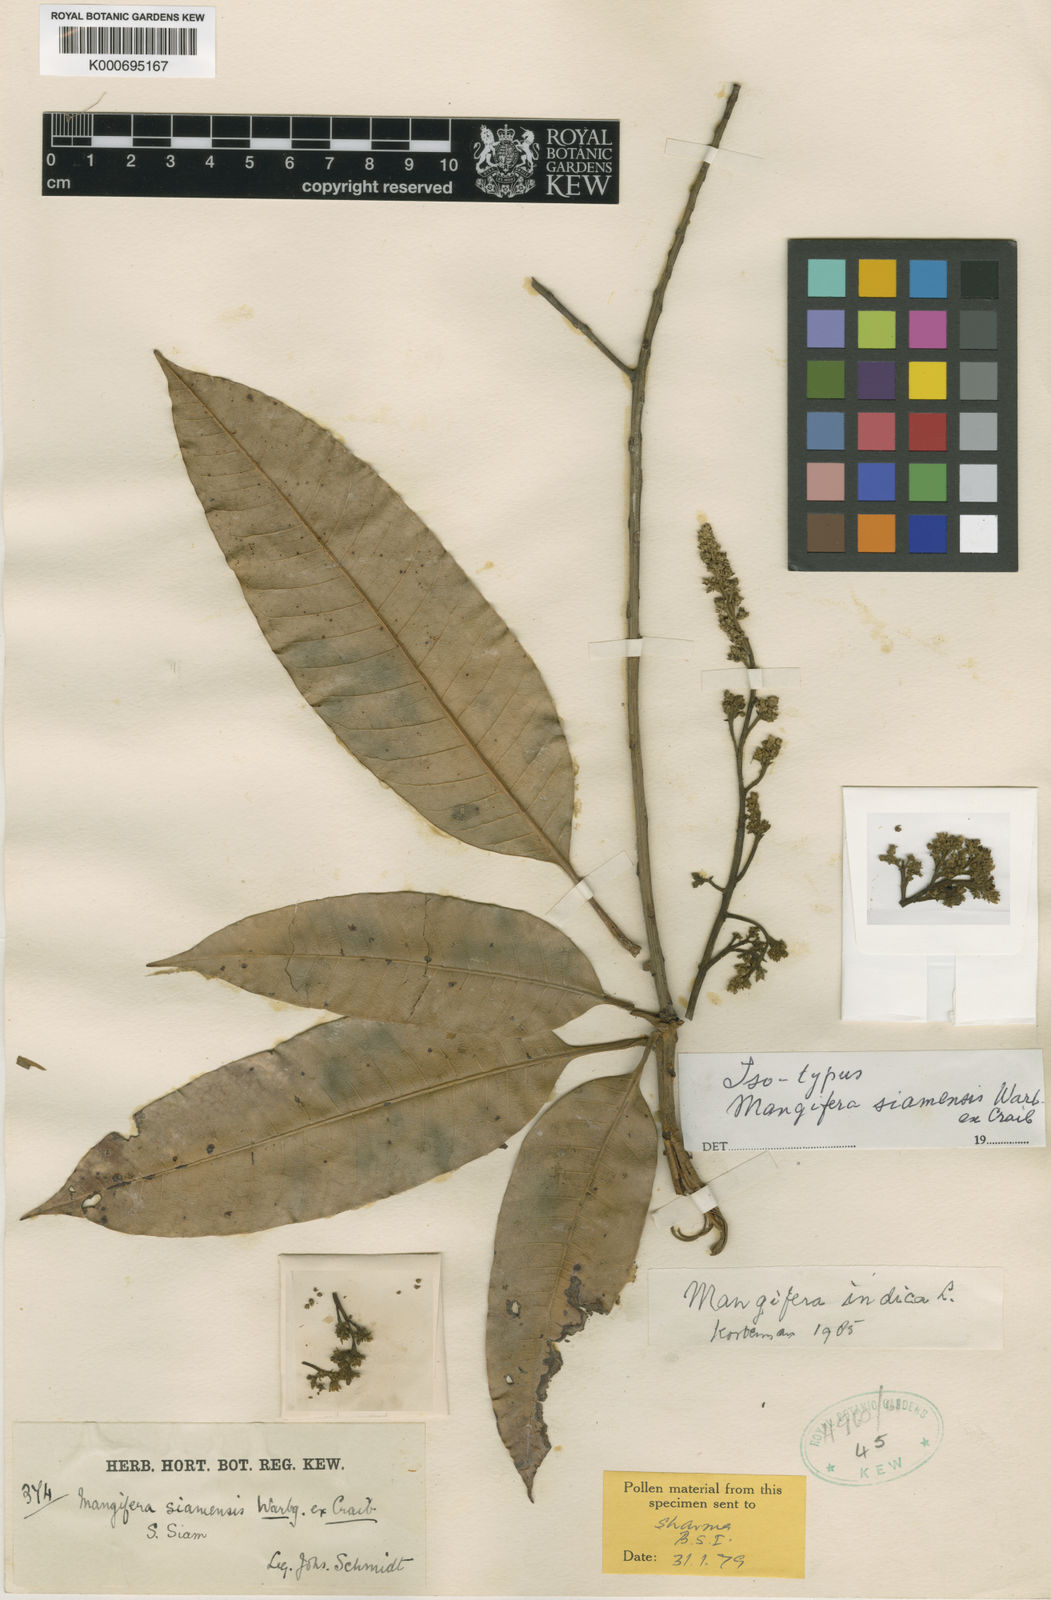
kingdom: Plantae
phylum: Tracheophyta
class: Magnoliopsida
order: Sapindales
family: Anacardiaceae
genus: Mangifera
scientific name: Mangifera indica
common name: Mango
